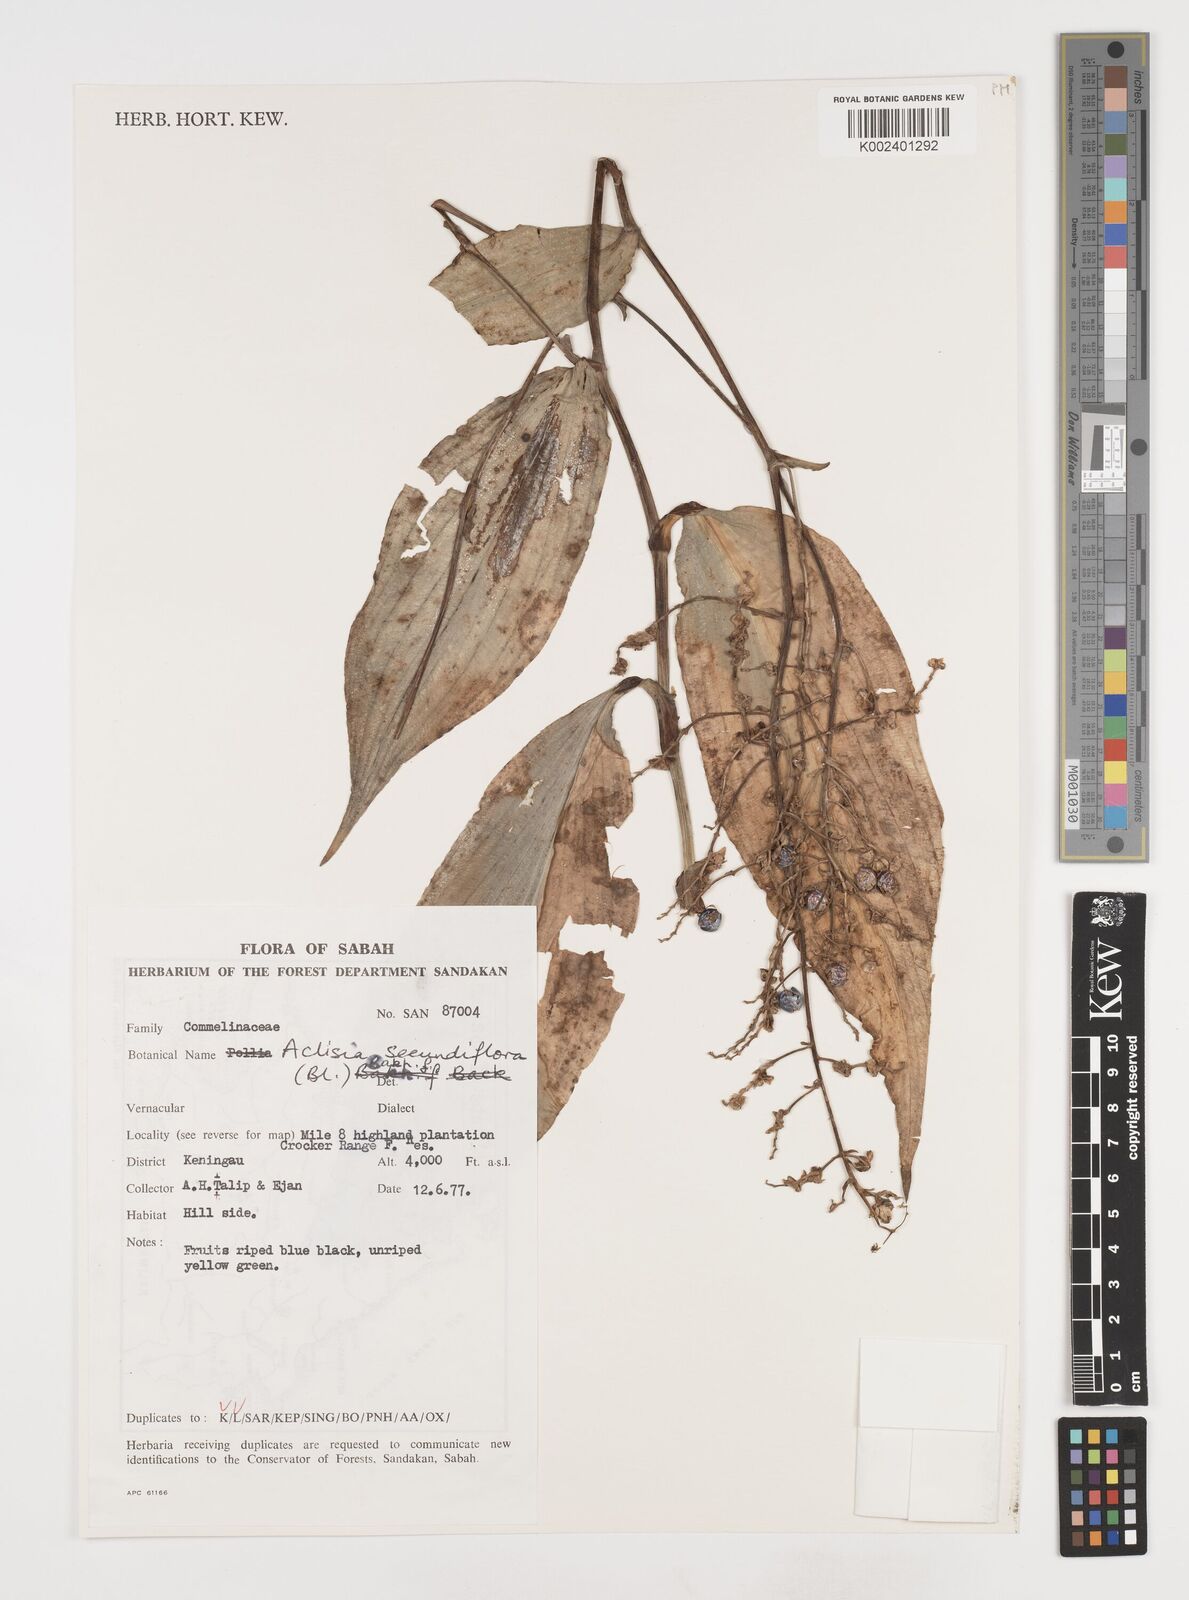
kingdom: Plantae
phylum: Tracheophyta
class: Liliopsida
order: Commelinales
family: Commelinaceae
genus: Pollia
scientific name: Pollia secundiflora
